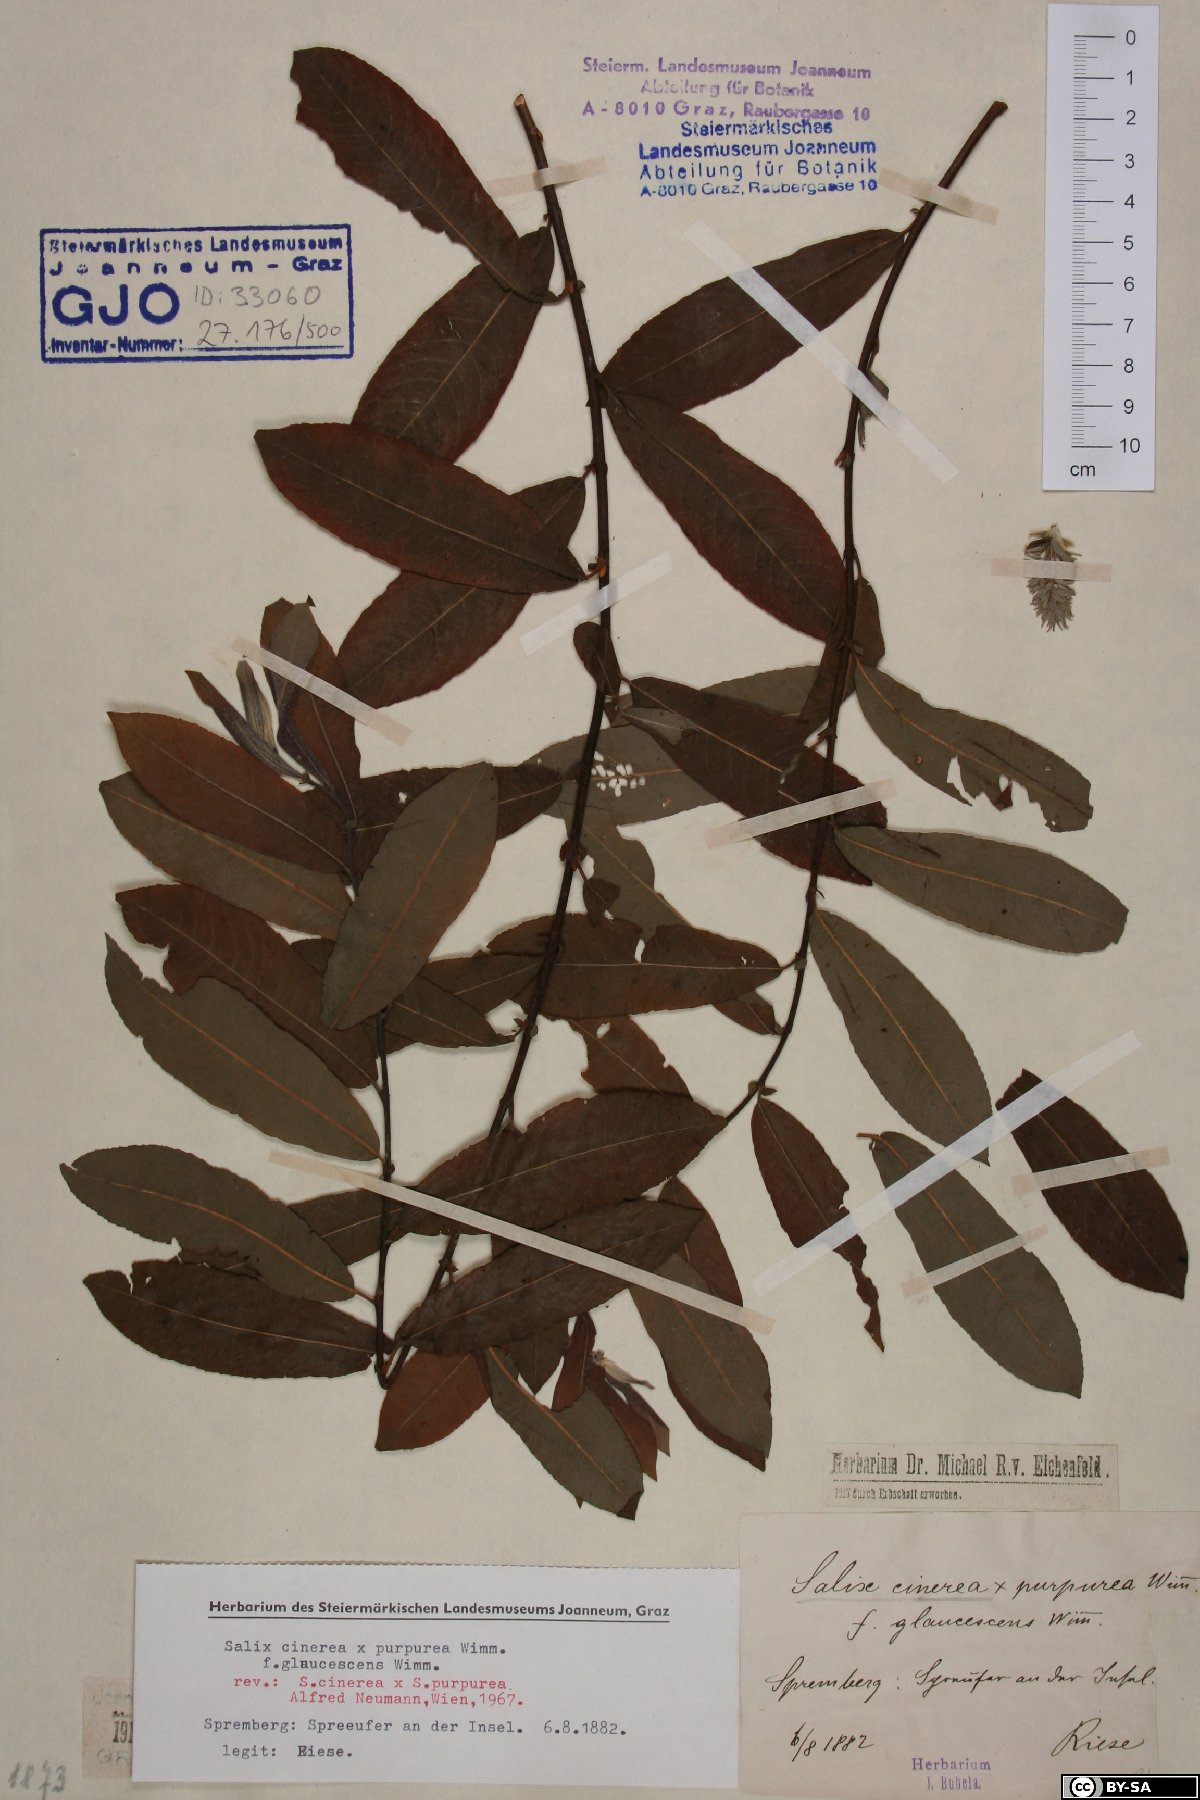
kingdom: Plantae
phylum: Tracheophyta
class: Magnoliopsida
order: Malpighiales
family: Salicaceae
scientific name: Salicaceae
